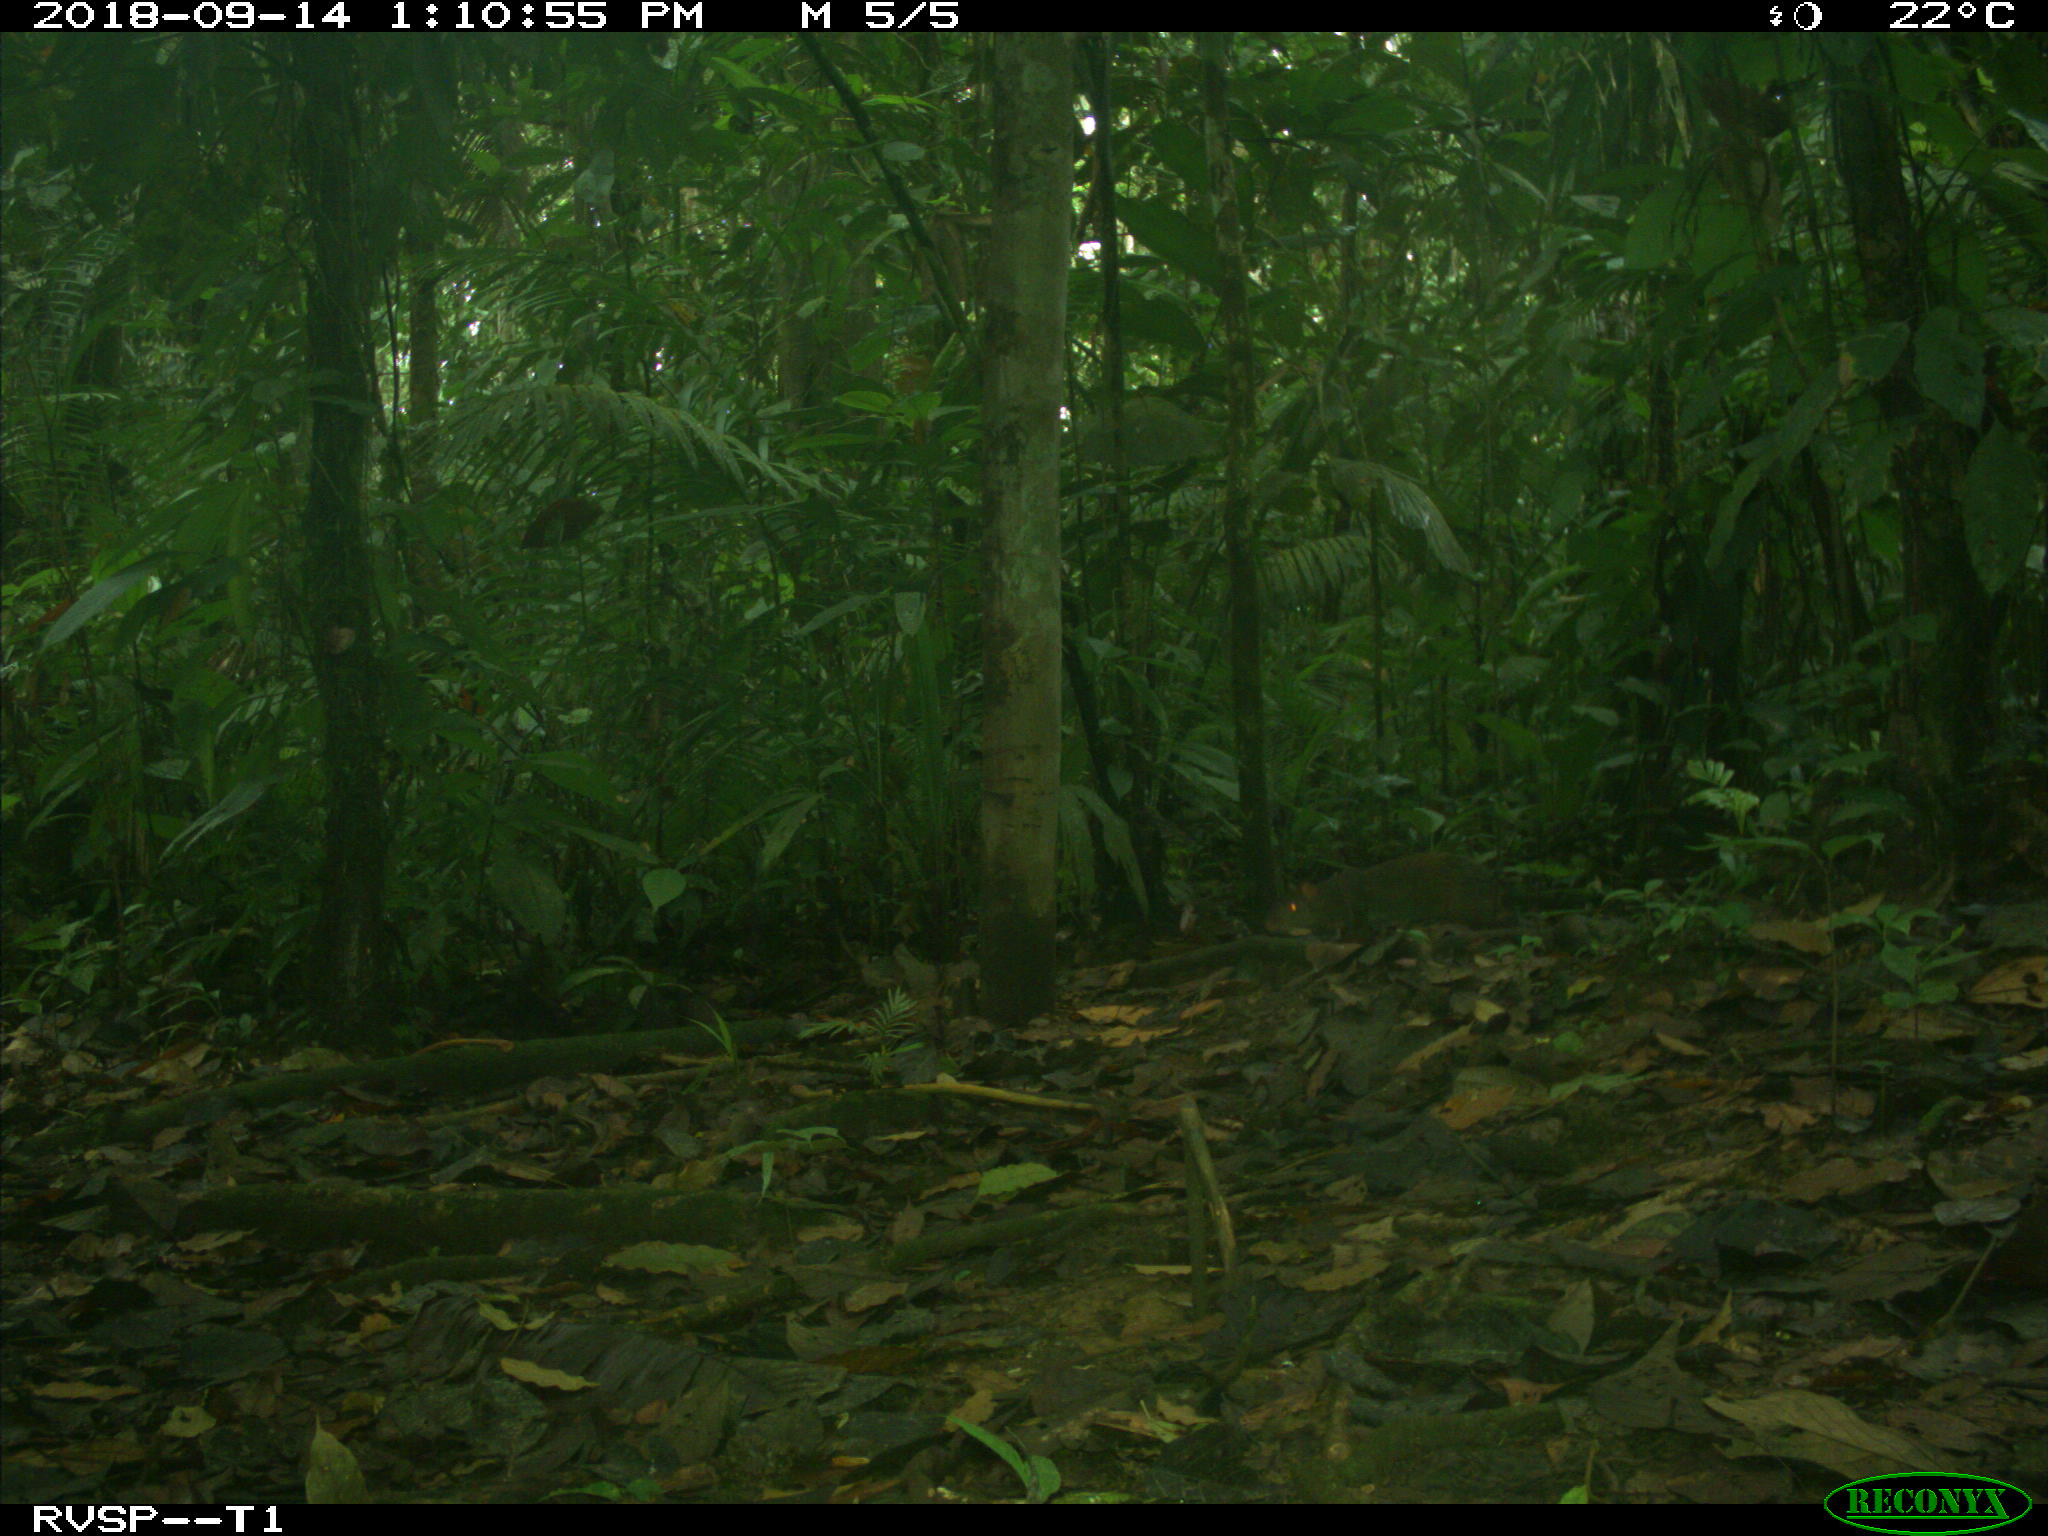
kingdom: Animalia
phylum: Chordata
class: Mammalia
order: Rodentia
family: Dasyproctidae
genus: Dasyprocta
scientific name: Dasyprocta punctata
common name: Central american agouti
